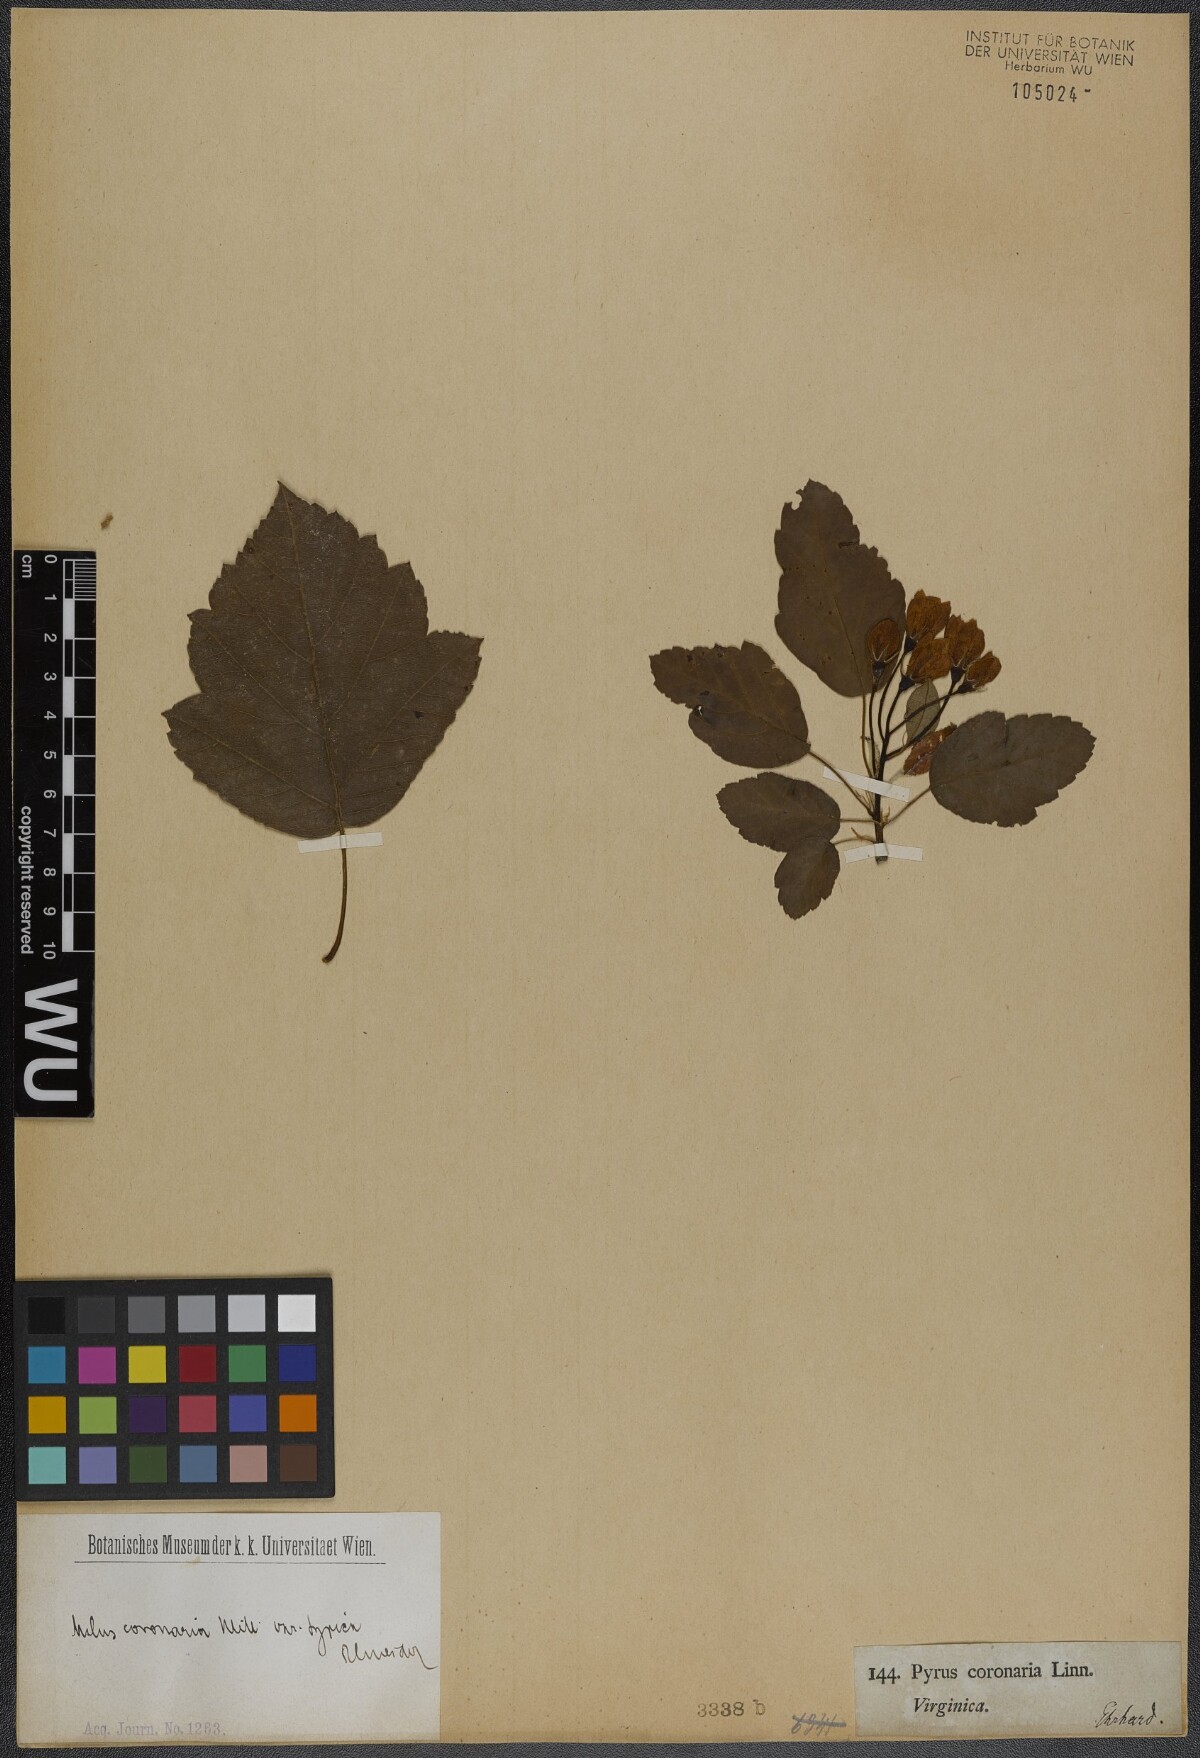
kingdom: Plantae
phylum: Tracheophyta
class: Magnoliopsida
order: Rosales
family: Rosaceae
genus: Malus
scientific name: Malus coronaria
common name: Sweet crab apple
